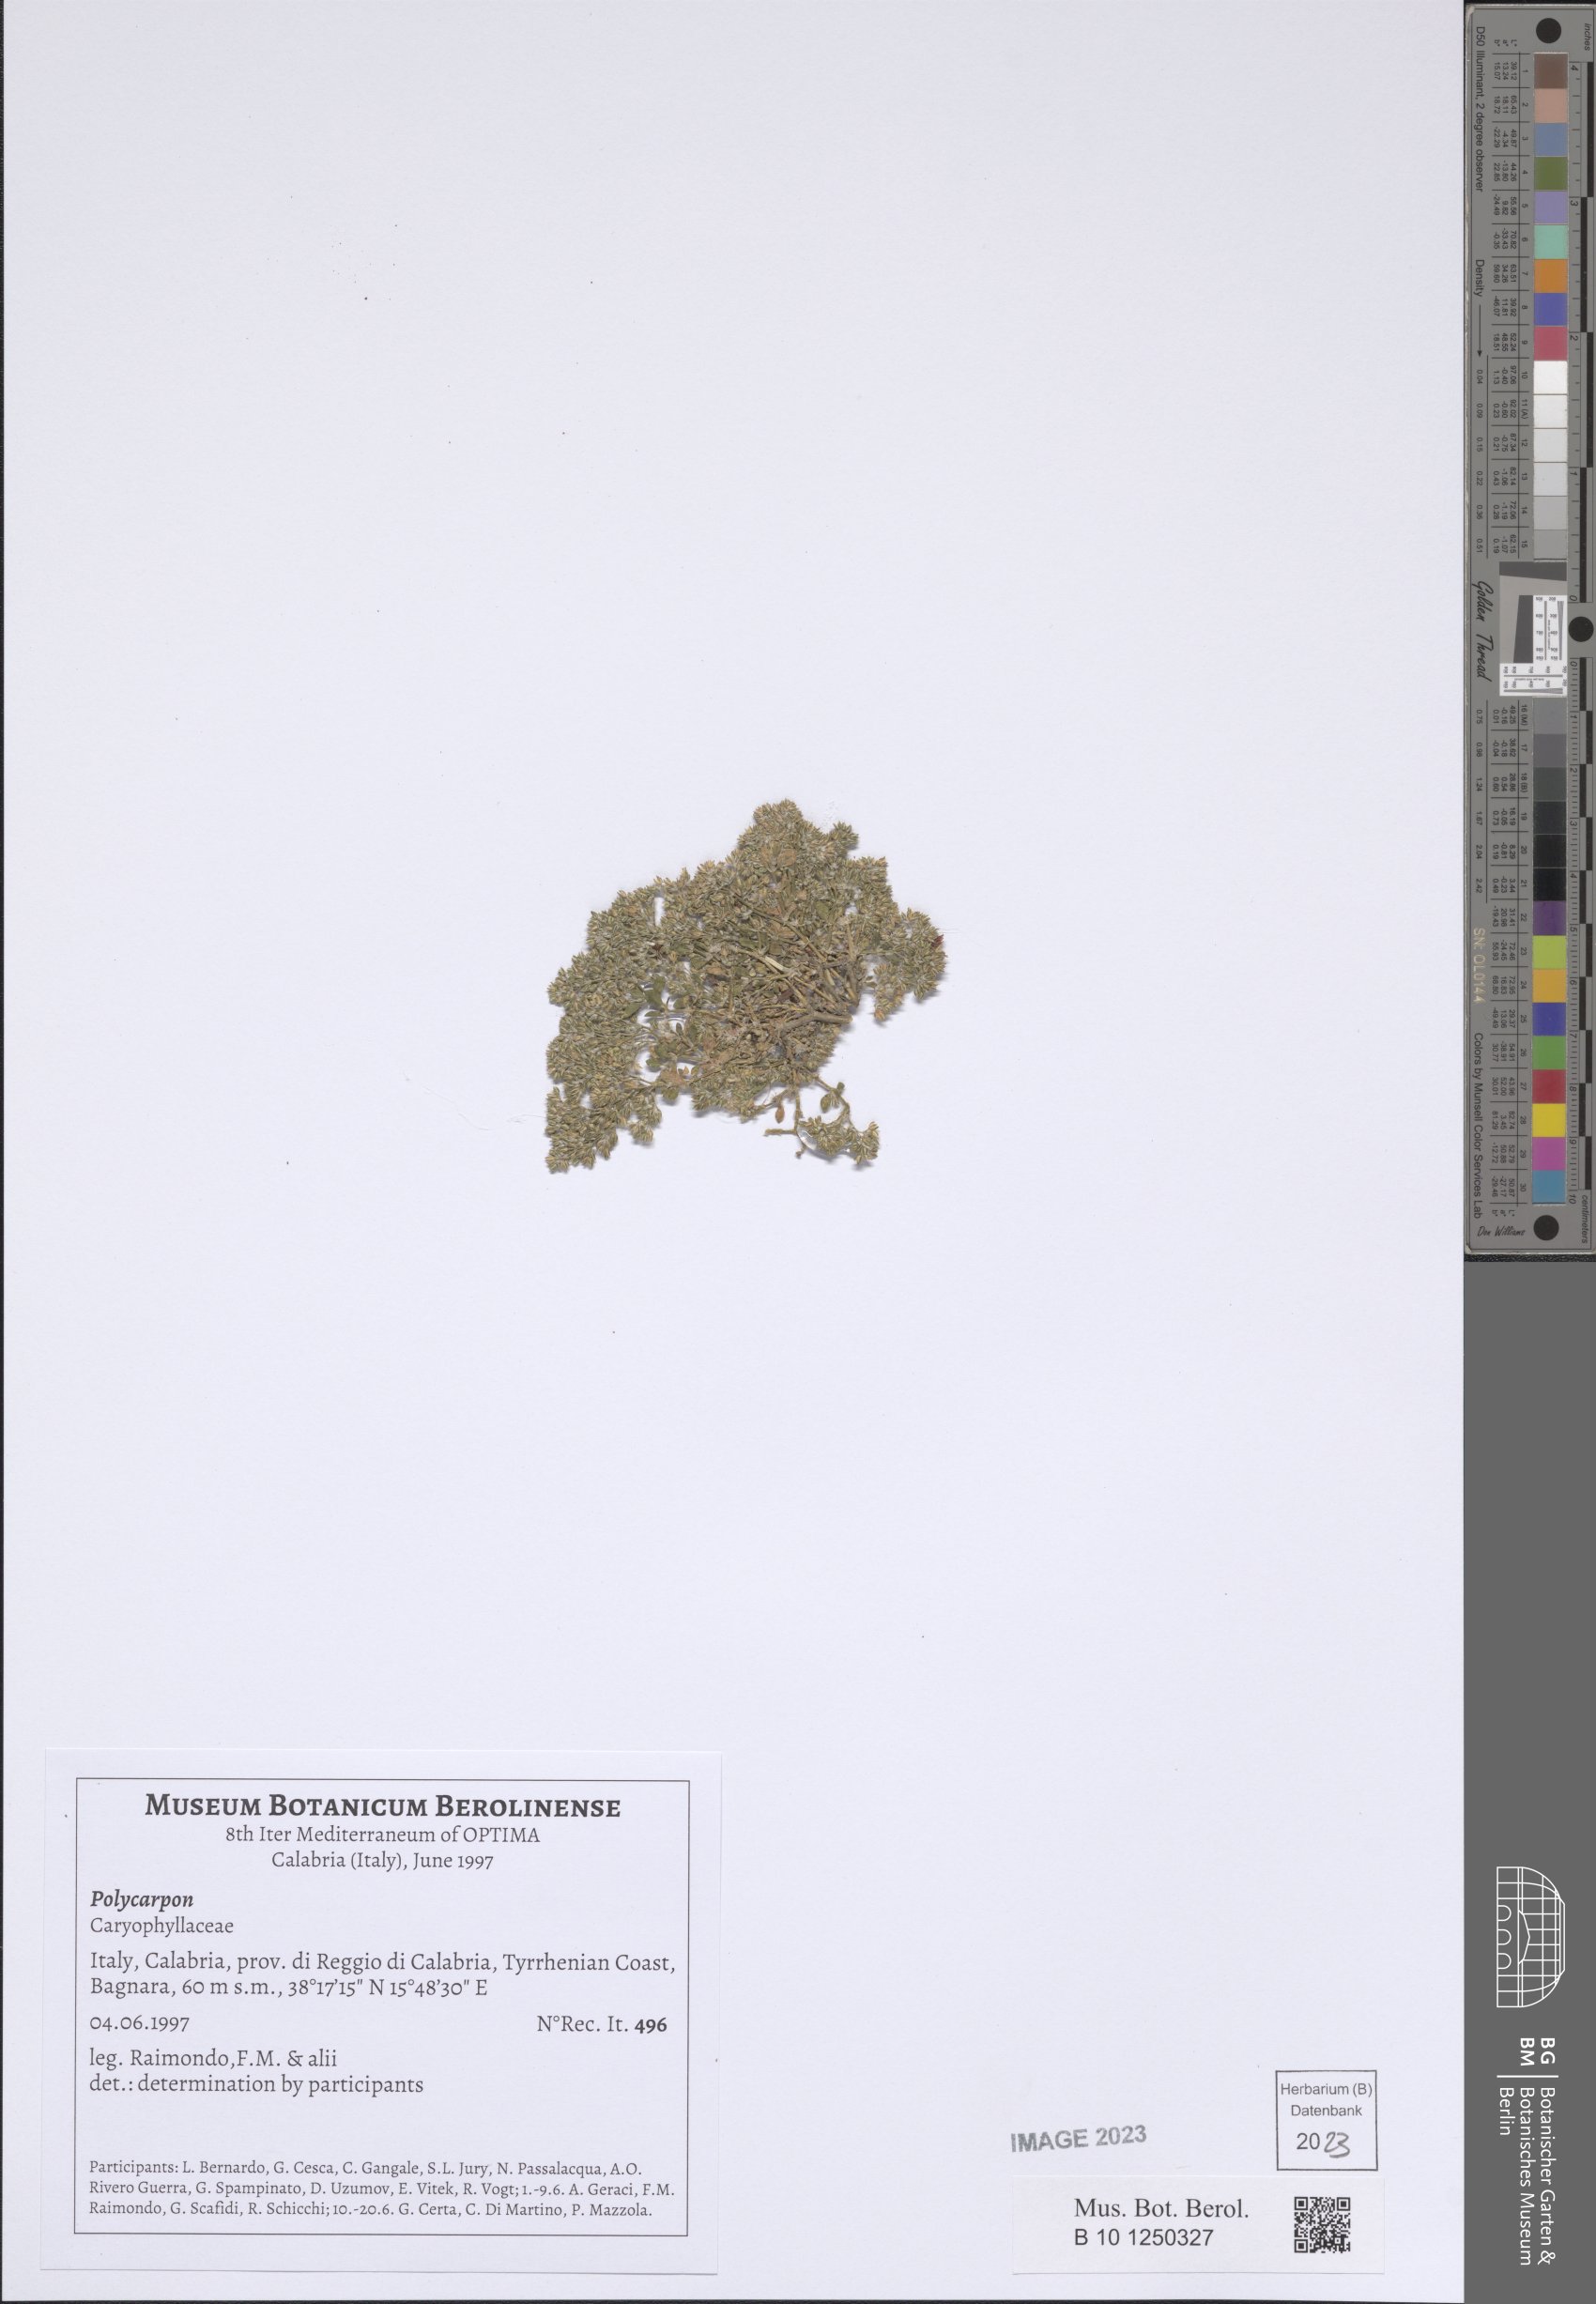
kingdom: Plantae
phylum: Tracheophyta
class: Magnoliopsida
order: Caryophyllales
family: Caryophyllaceae
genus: Polycarpon
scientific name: Polycarpon
